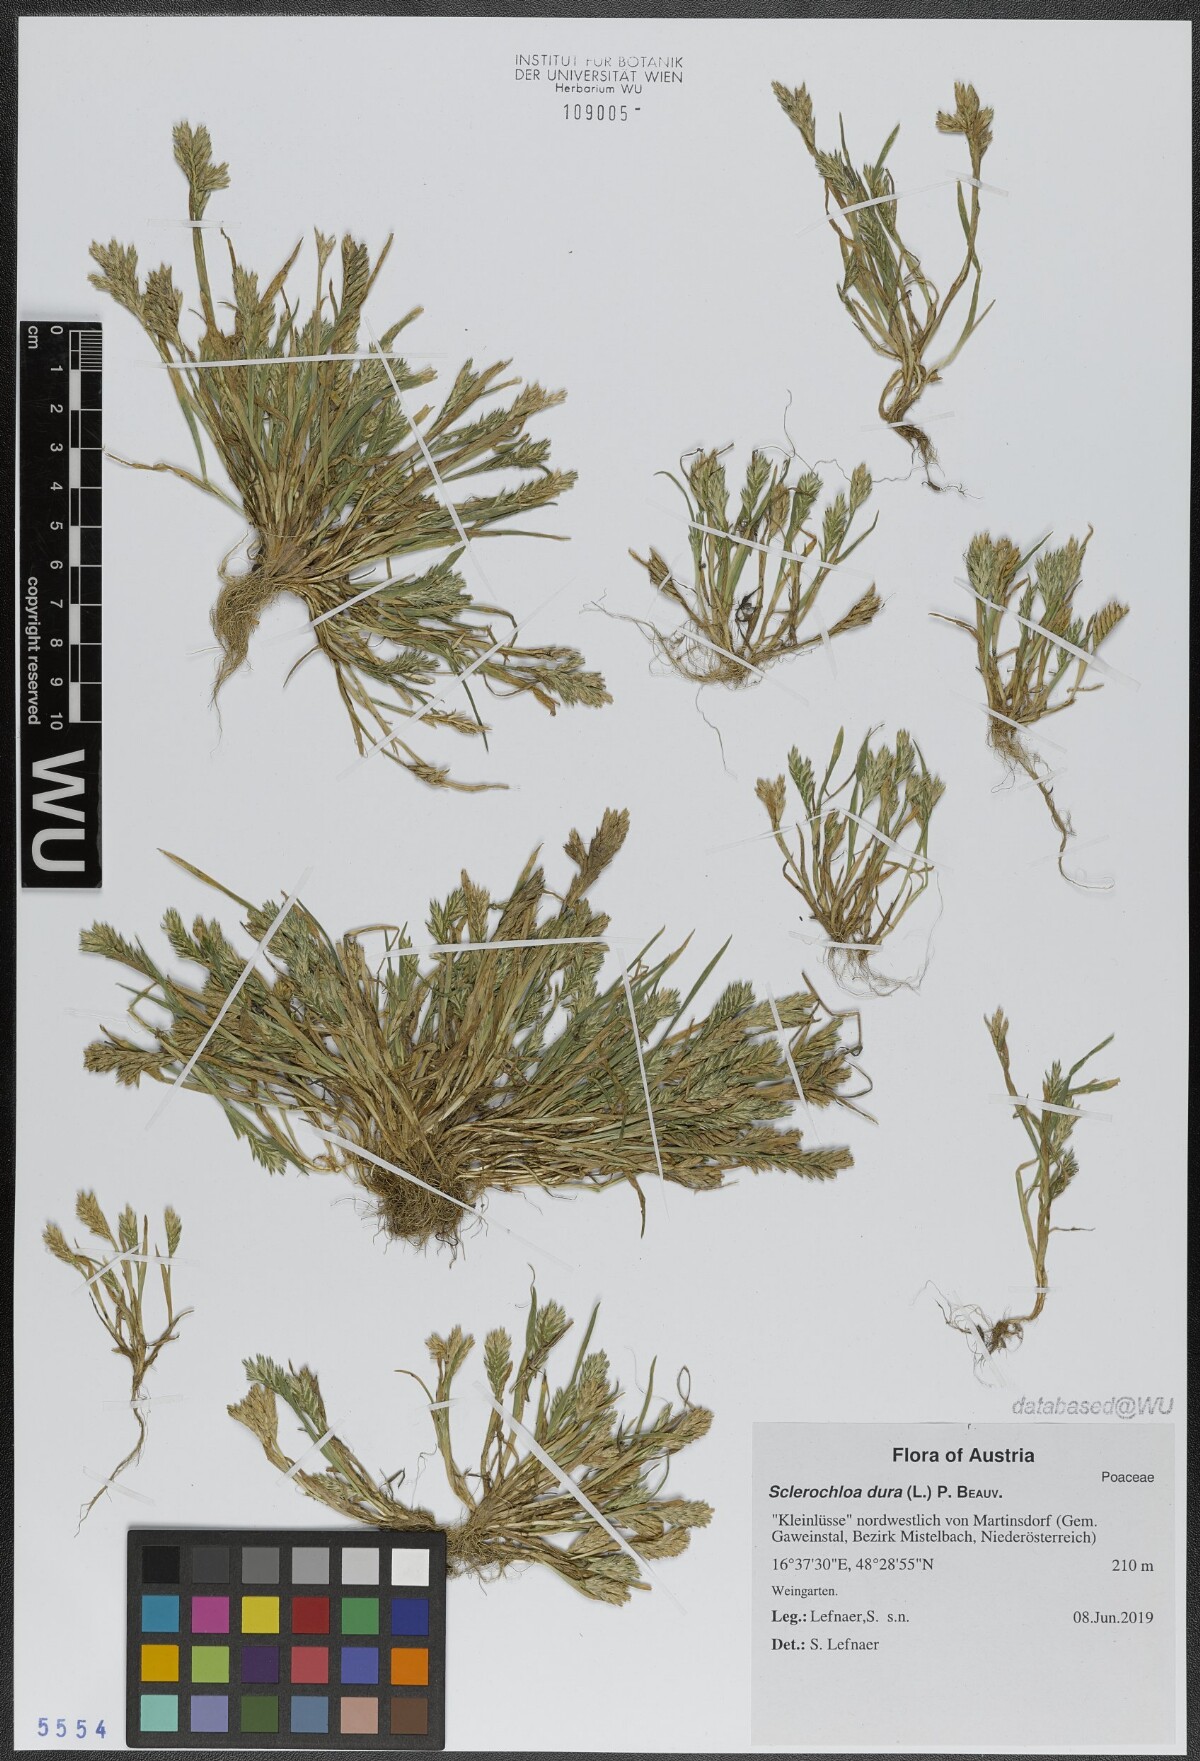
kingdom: Plantae
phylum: Tracheophyta
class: Liliopsida
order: Poales
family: Poaceae
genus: Sclerochloa
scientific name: Sclerochloa dura
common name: Common hardgrass
